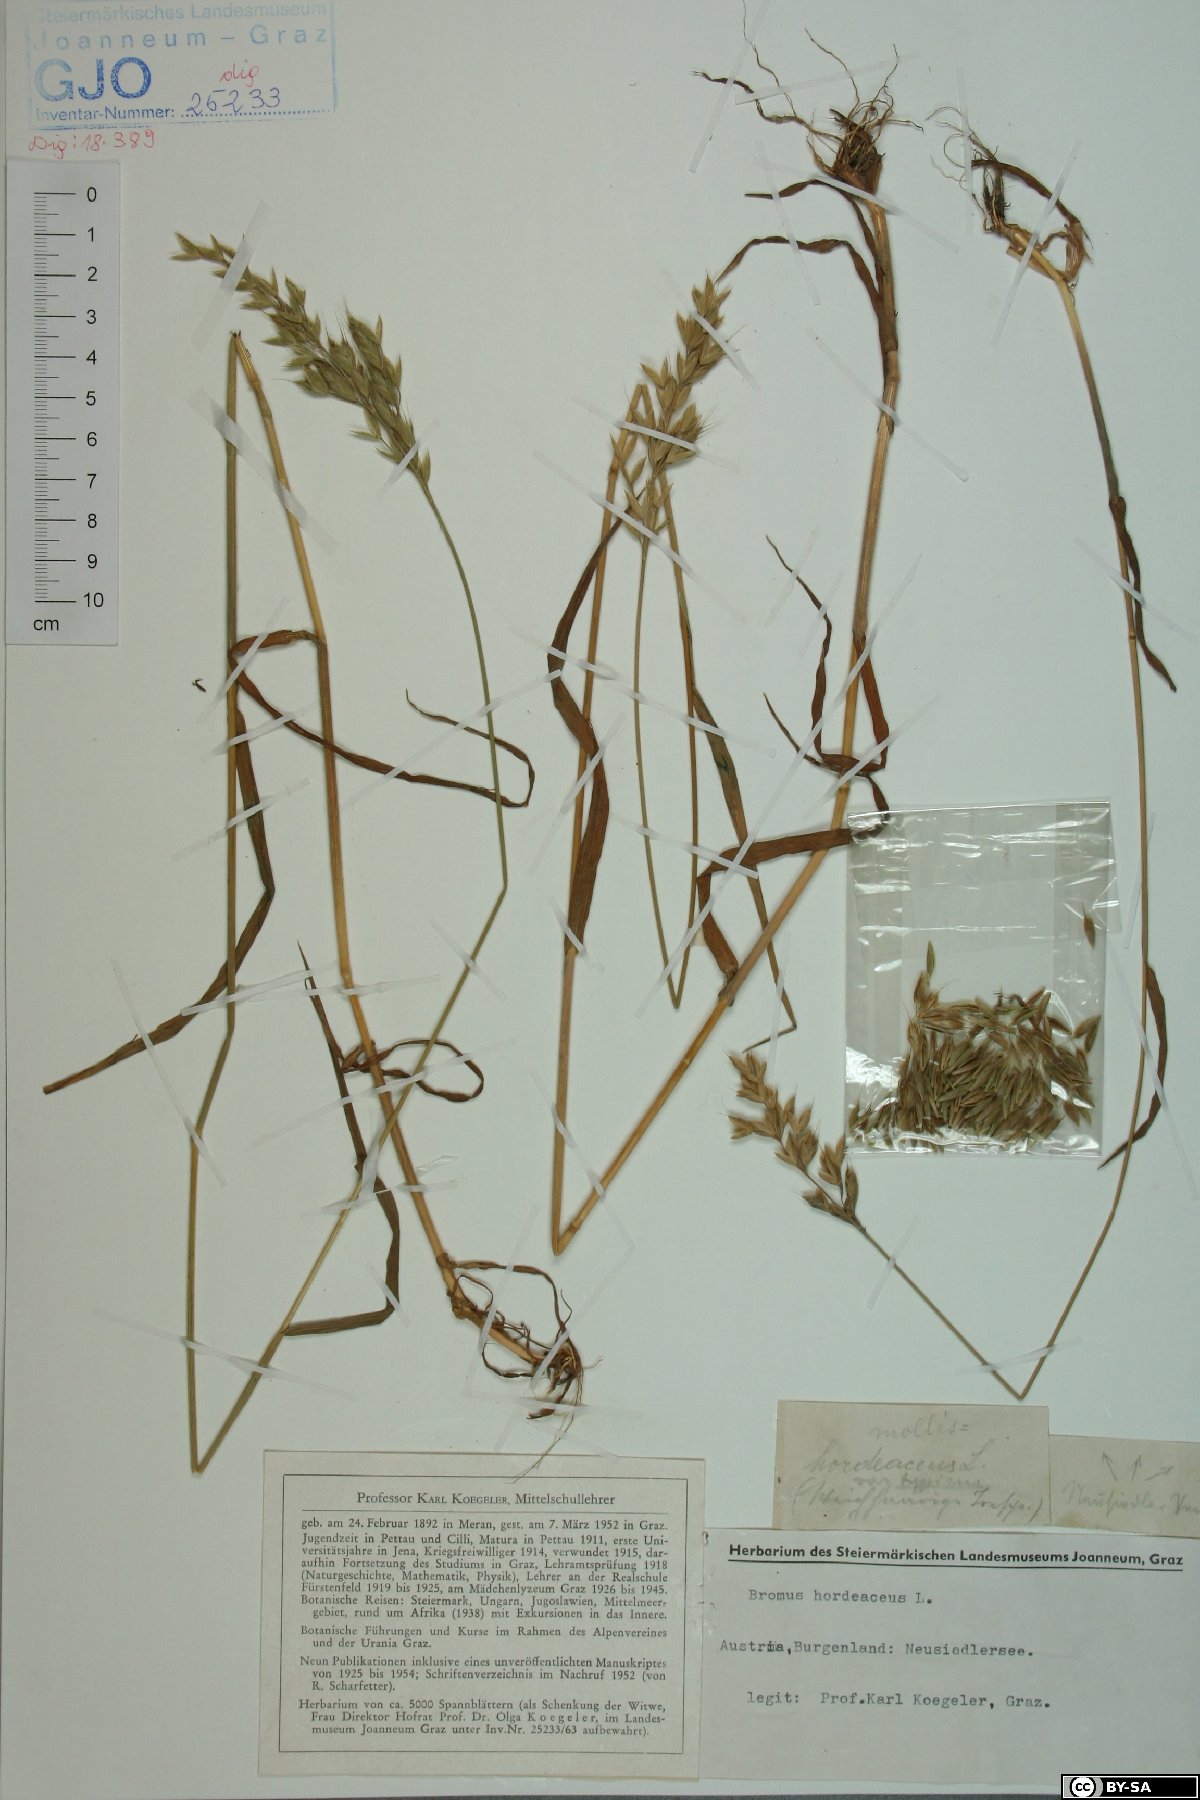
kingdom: Plantae
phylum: Tracheophyta
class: Liliopsida
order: Poales
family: Poaceae
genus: Bromus
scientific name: Bromus hordeaceus
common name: Soft brome
